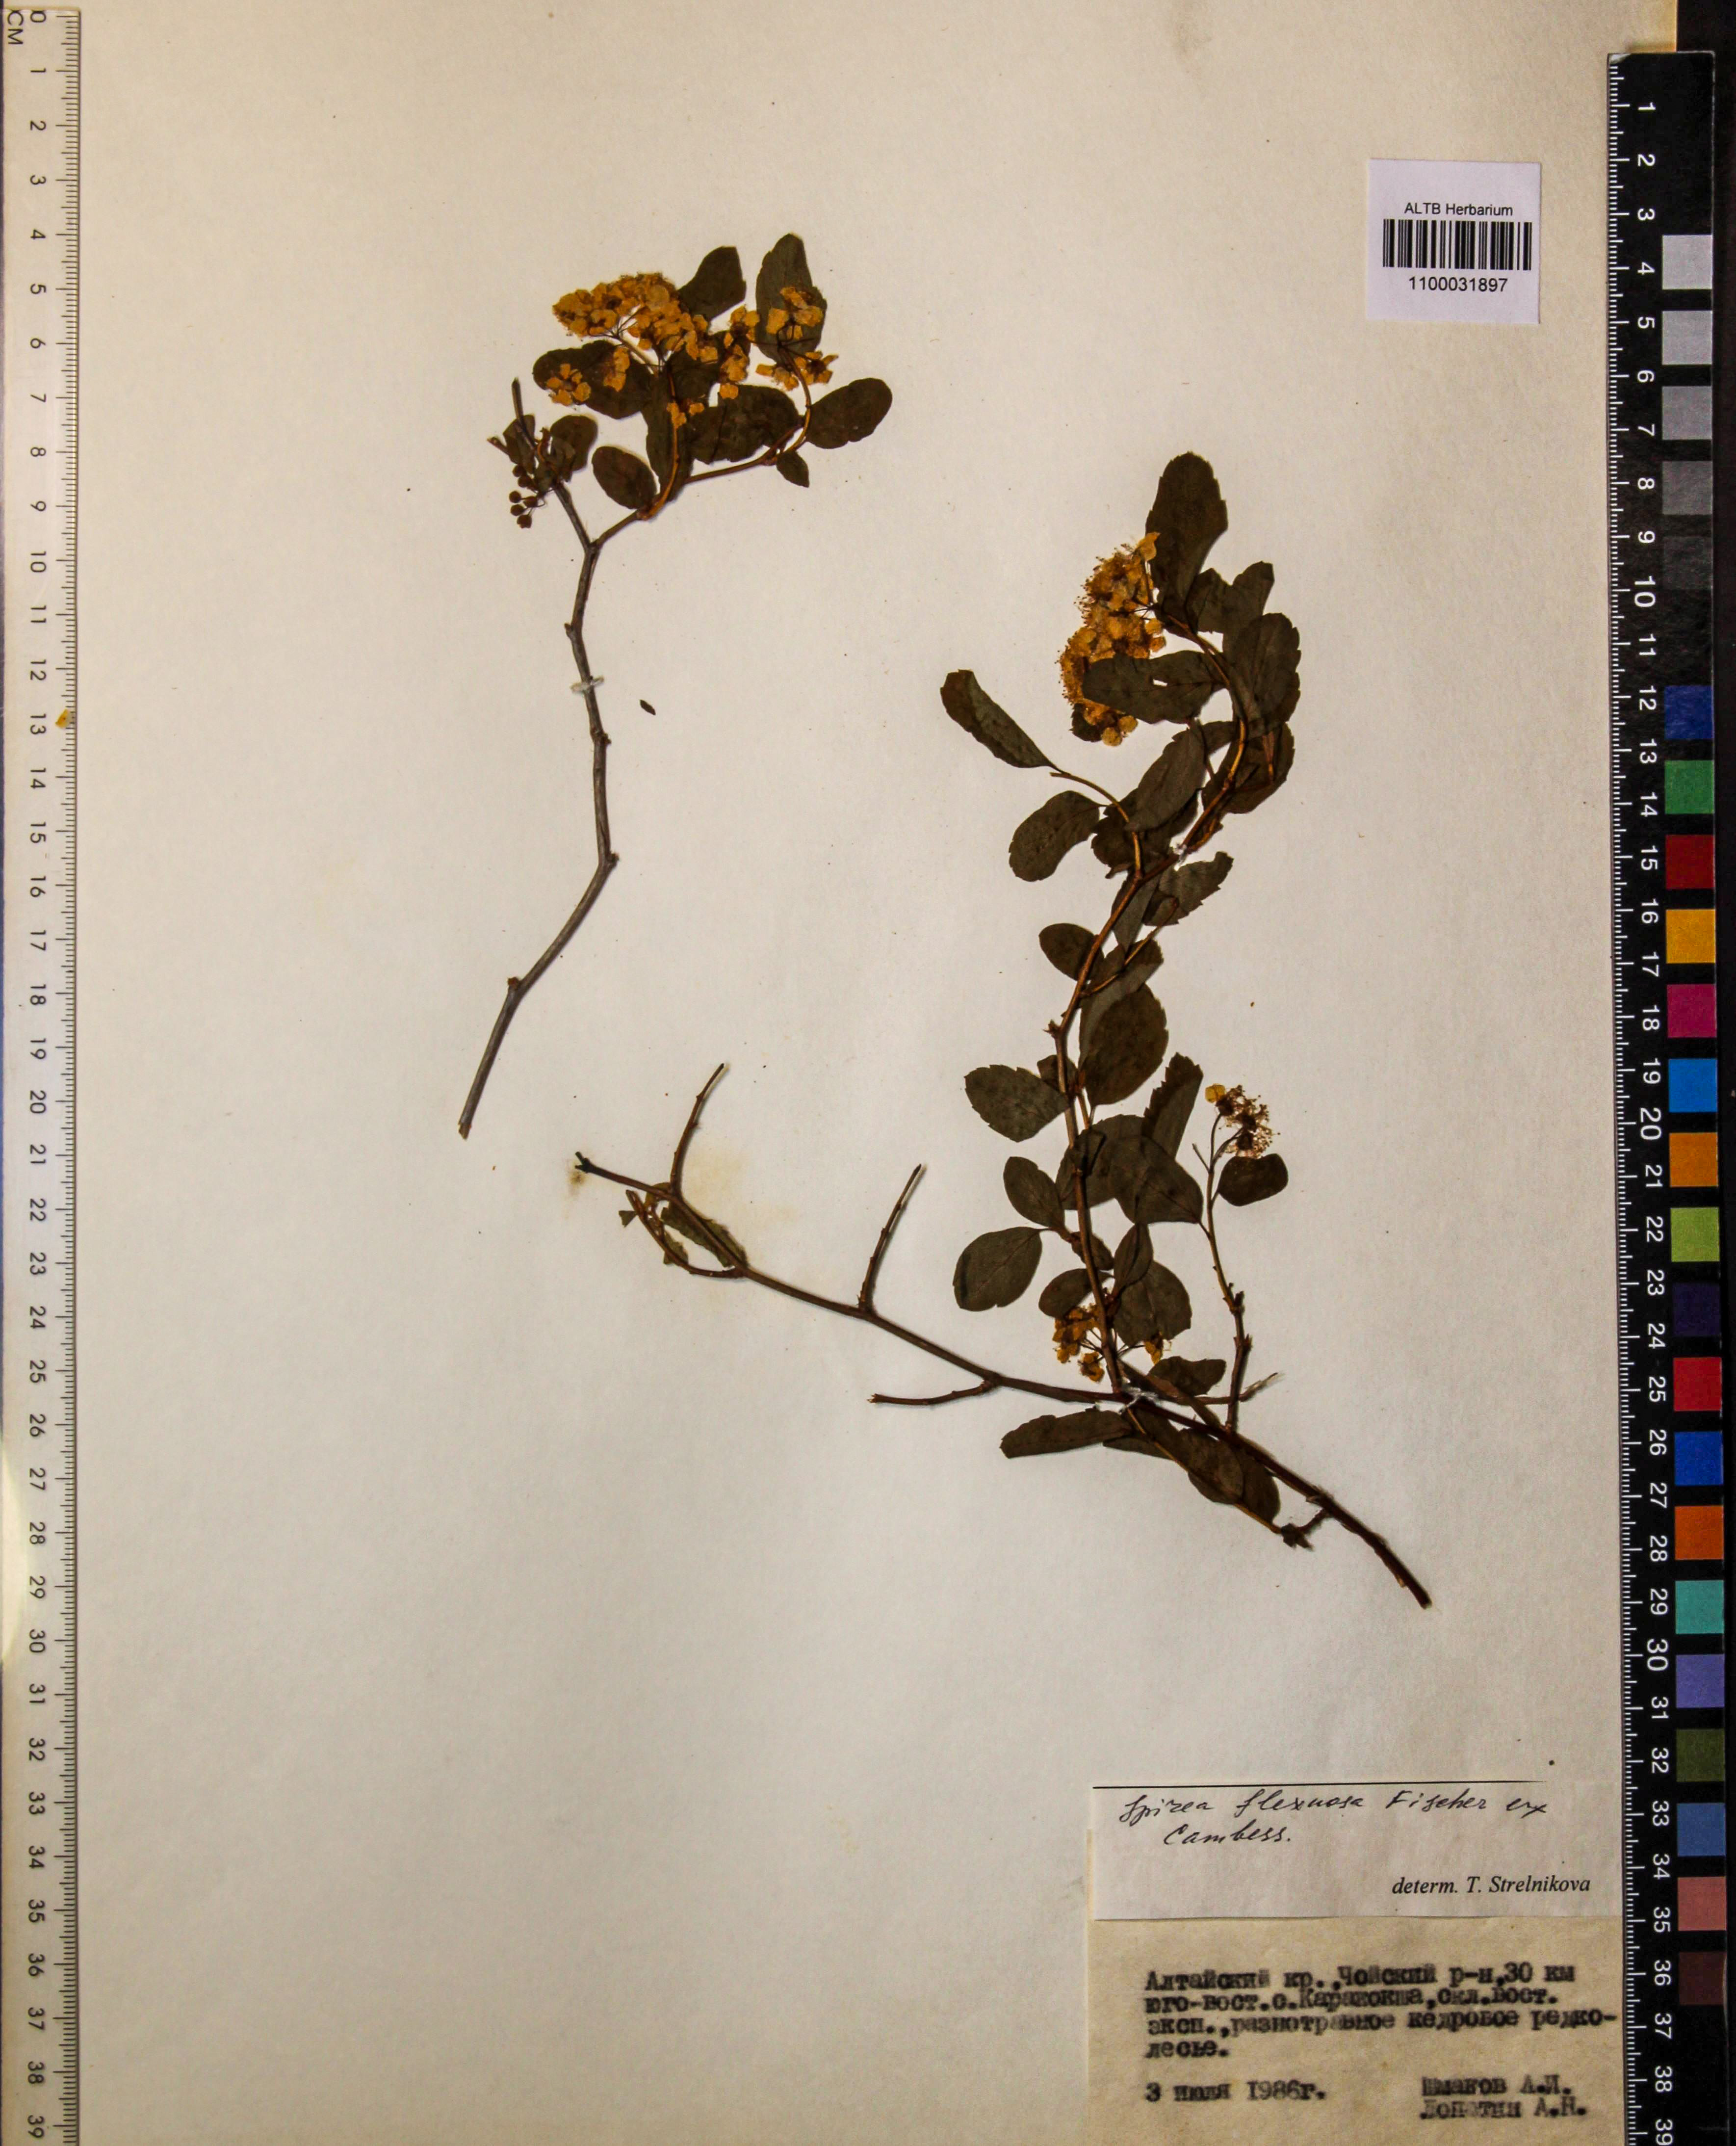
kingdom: Plantae
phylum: Tracheophyta
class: Magnoliopsida
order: Rosales
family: Rosaceae
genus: Spiraea
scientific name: Spiraea flexuosa
